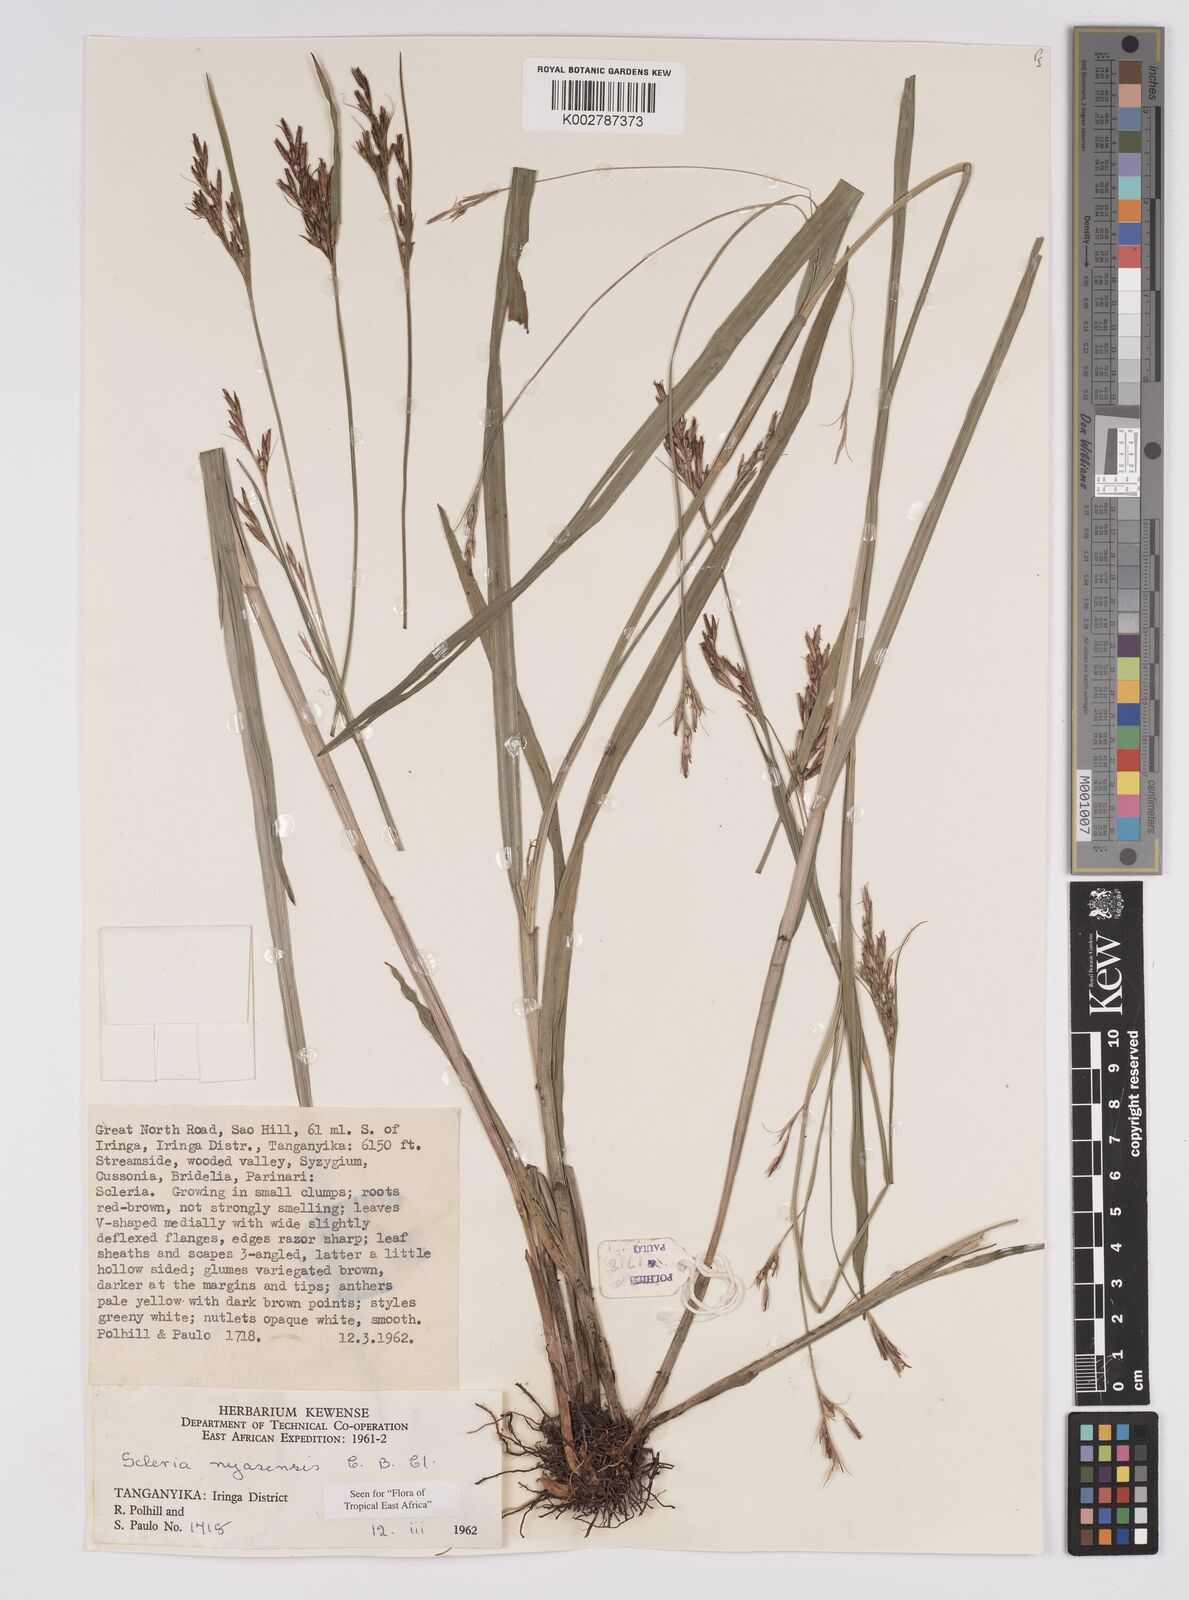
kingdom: Plantae
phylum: Tracheophyta
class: Liliopsida
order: Poales
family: Cyperaceae
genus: Scleria
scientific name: Scleria nyasensis
